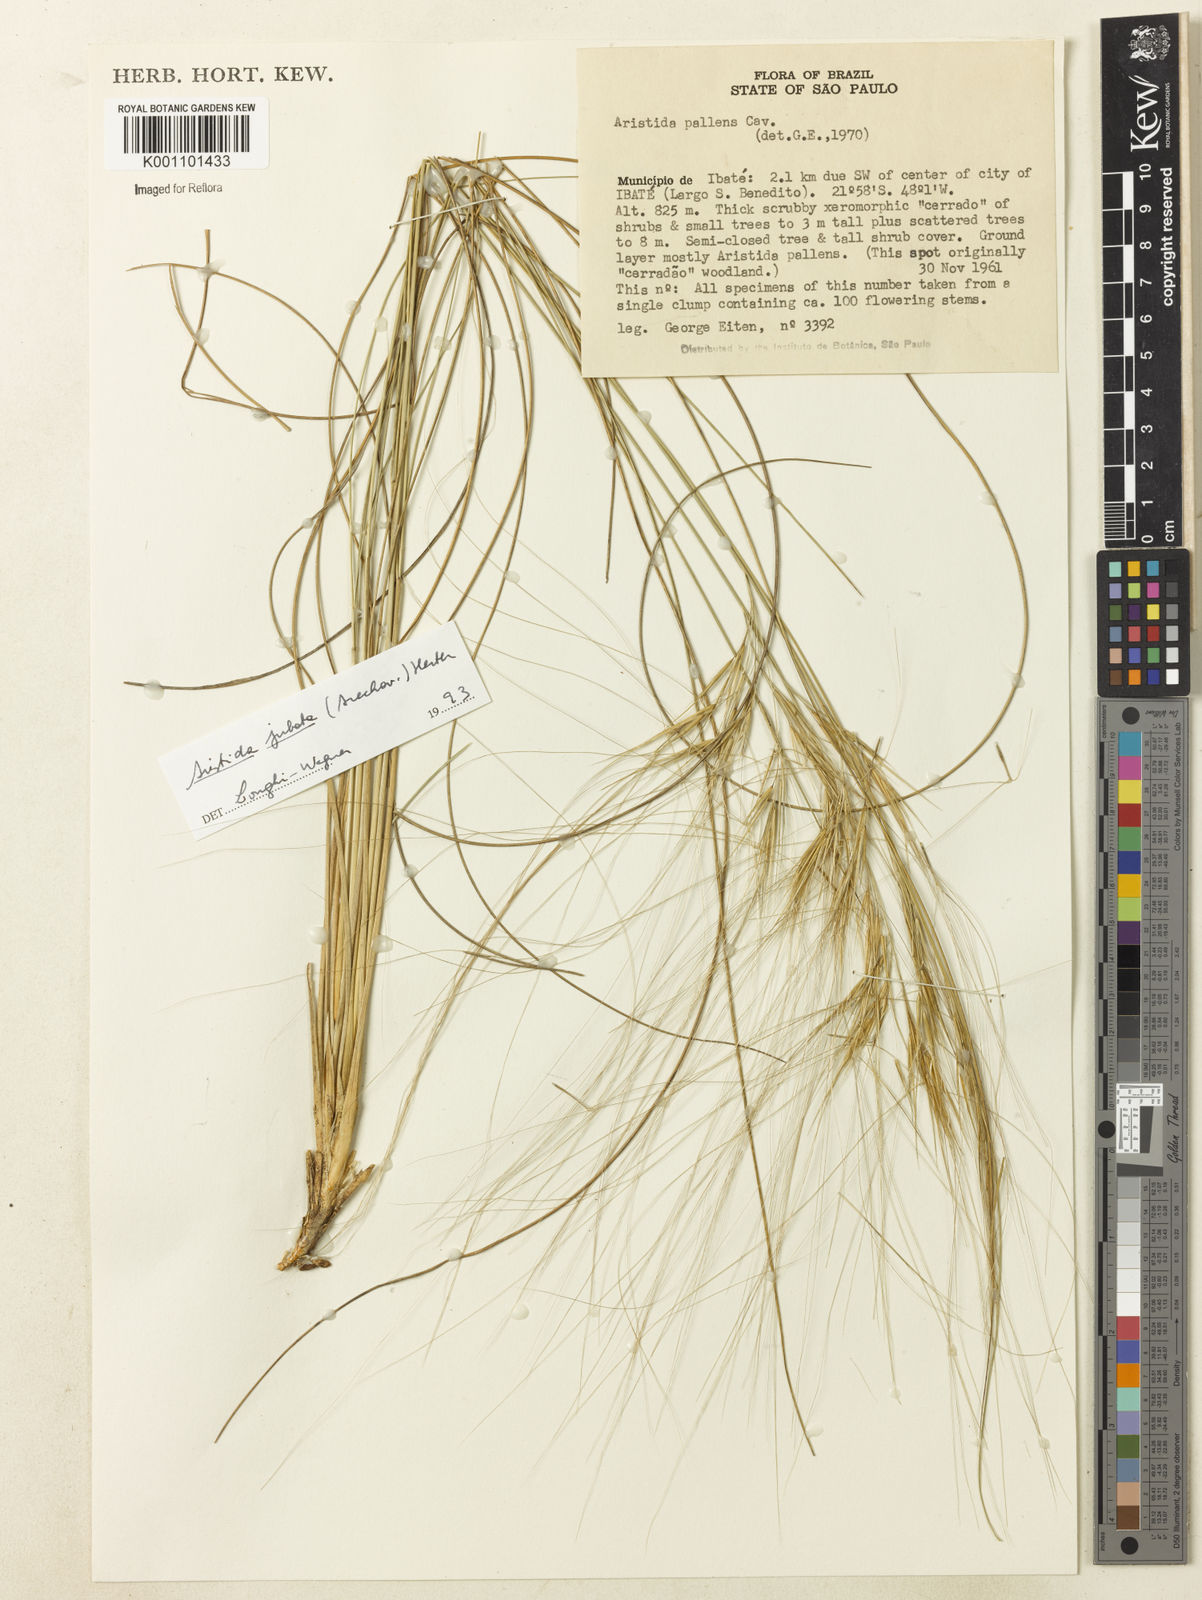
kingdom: Plantae
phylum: Tracheophyta
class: Liliopsida
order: Poales
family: Poaceae
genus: Aristida
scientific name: Aristida jubata
